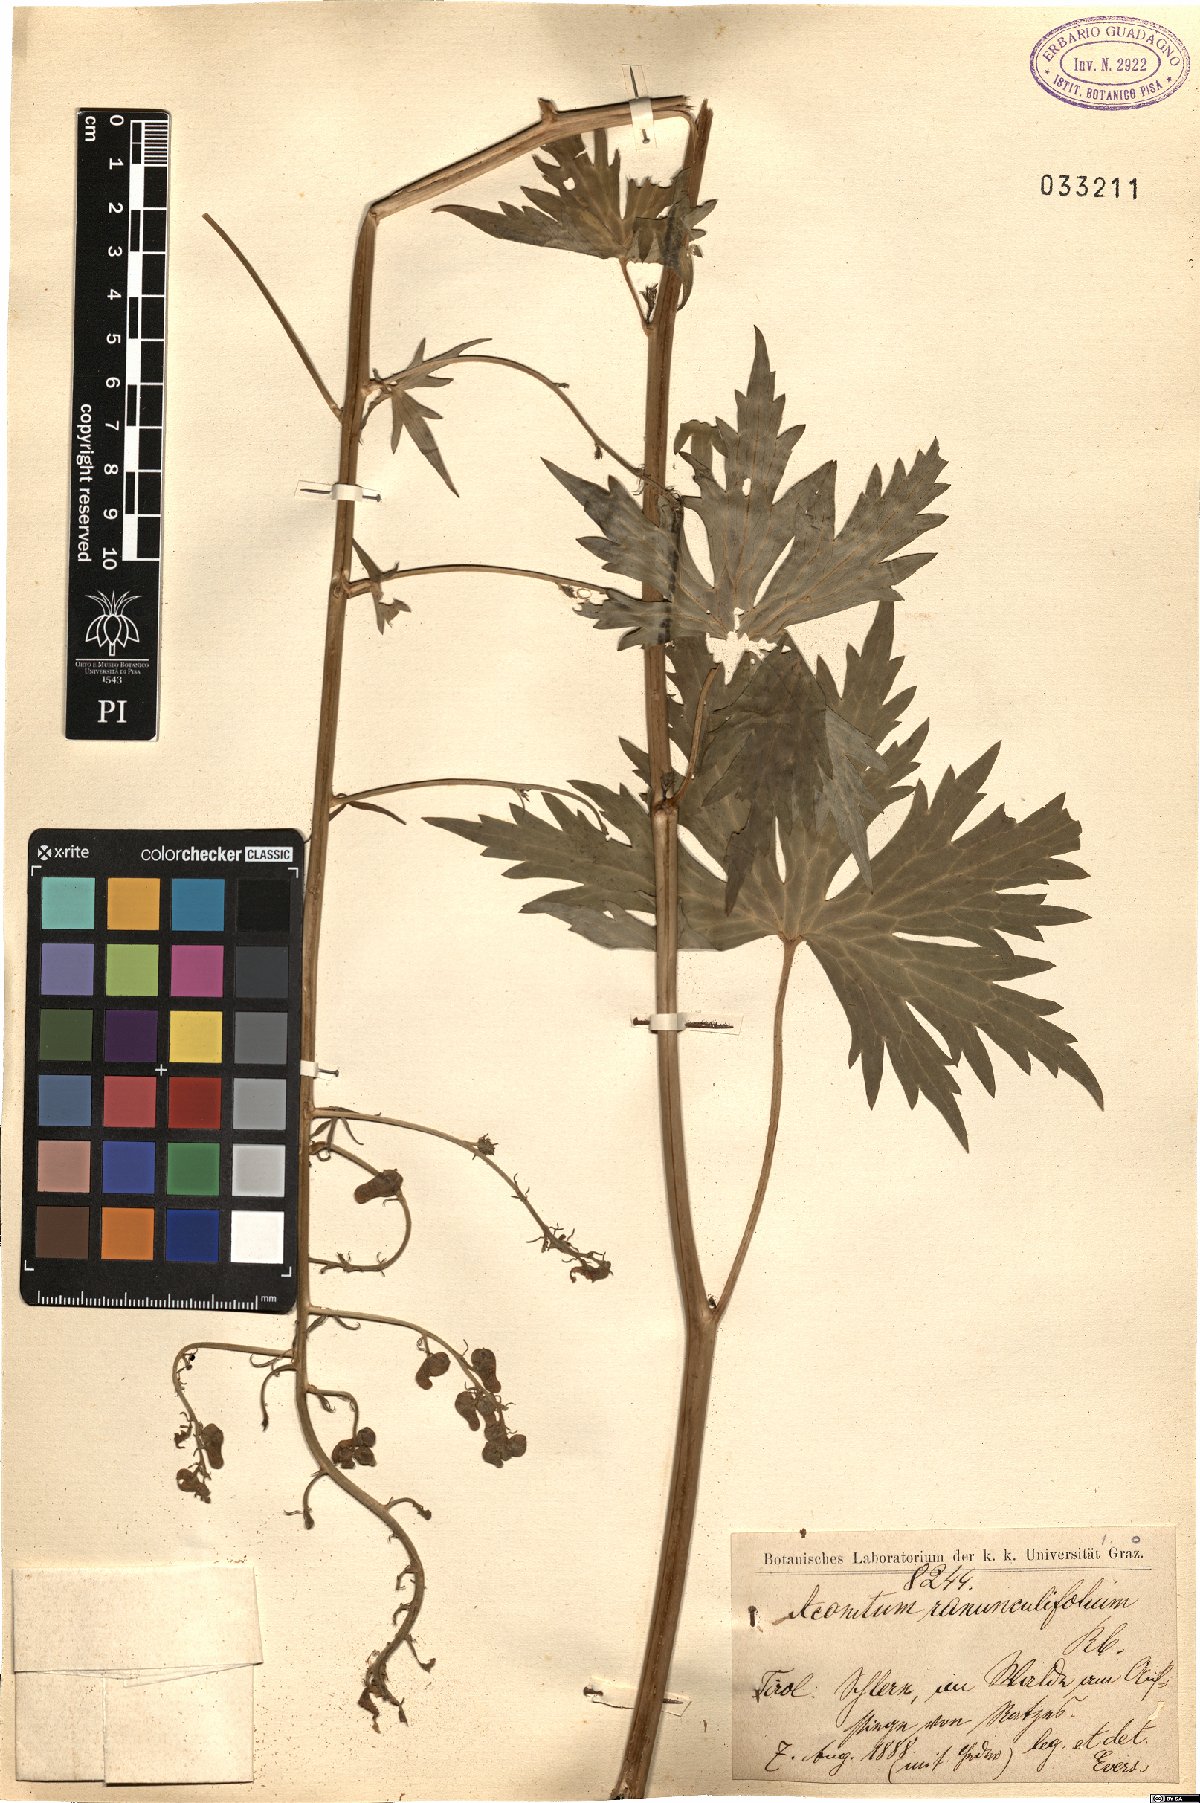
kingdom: Plantae
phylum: Tracheophyta
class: Magnoliopsida
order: Ranunculales
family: Ranunculaceae
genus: Aconitum
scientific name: Aconitum lycoctonum
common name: Wolf's-bane
